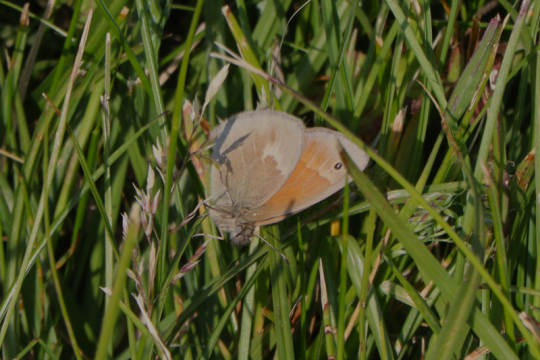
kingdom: Animalia
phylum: Arthropoda
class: Insecta
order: Lepidoptera
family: Nymphalidae
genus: Coenonympha
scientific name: Coenonympha tullia
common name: Large Heath
